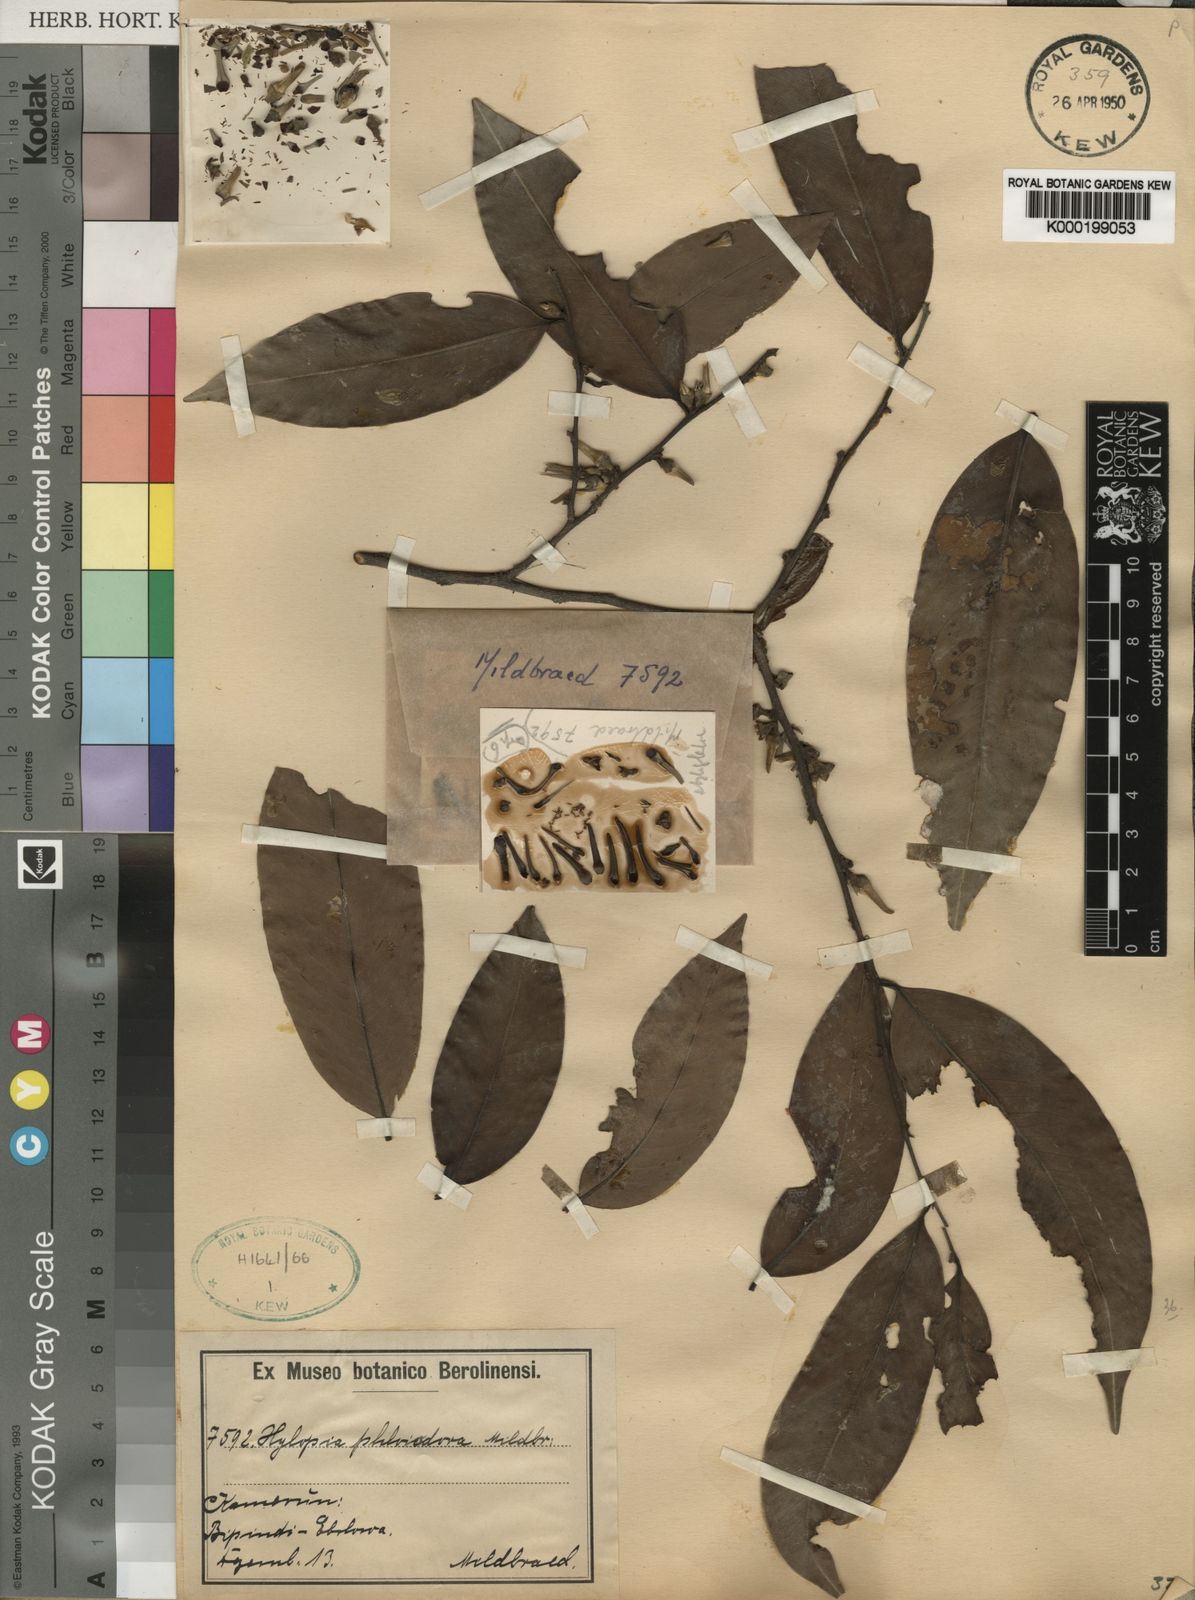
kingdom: Plantae
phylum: Tracheophyta
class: Magnoliopsida
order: Magnoliales
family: Annonaceae
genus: Xylopia
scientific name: Xylopia phloiodora
